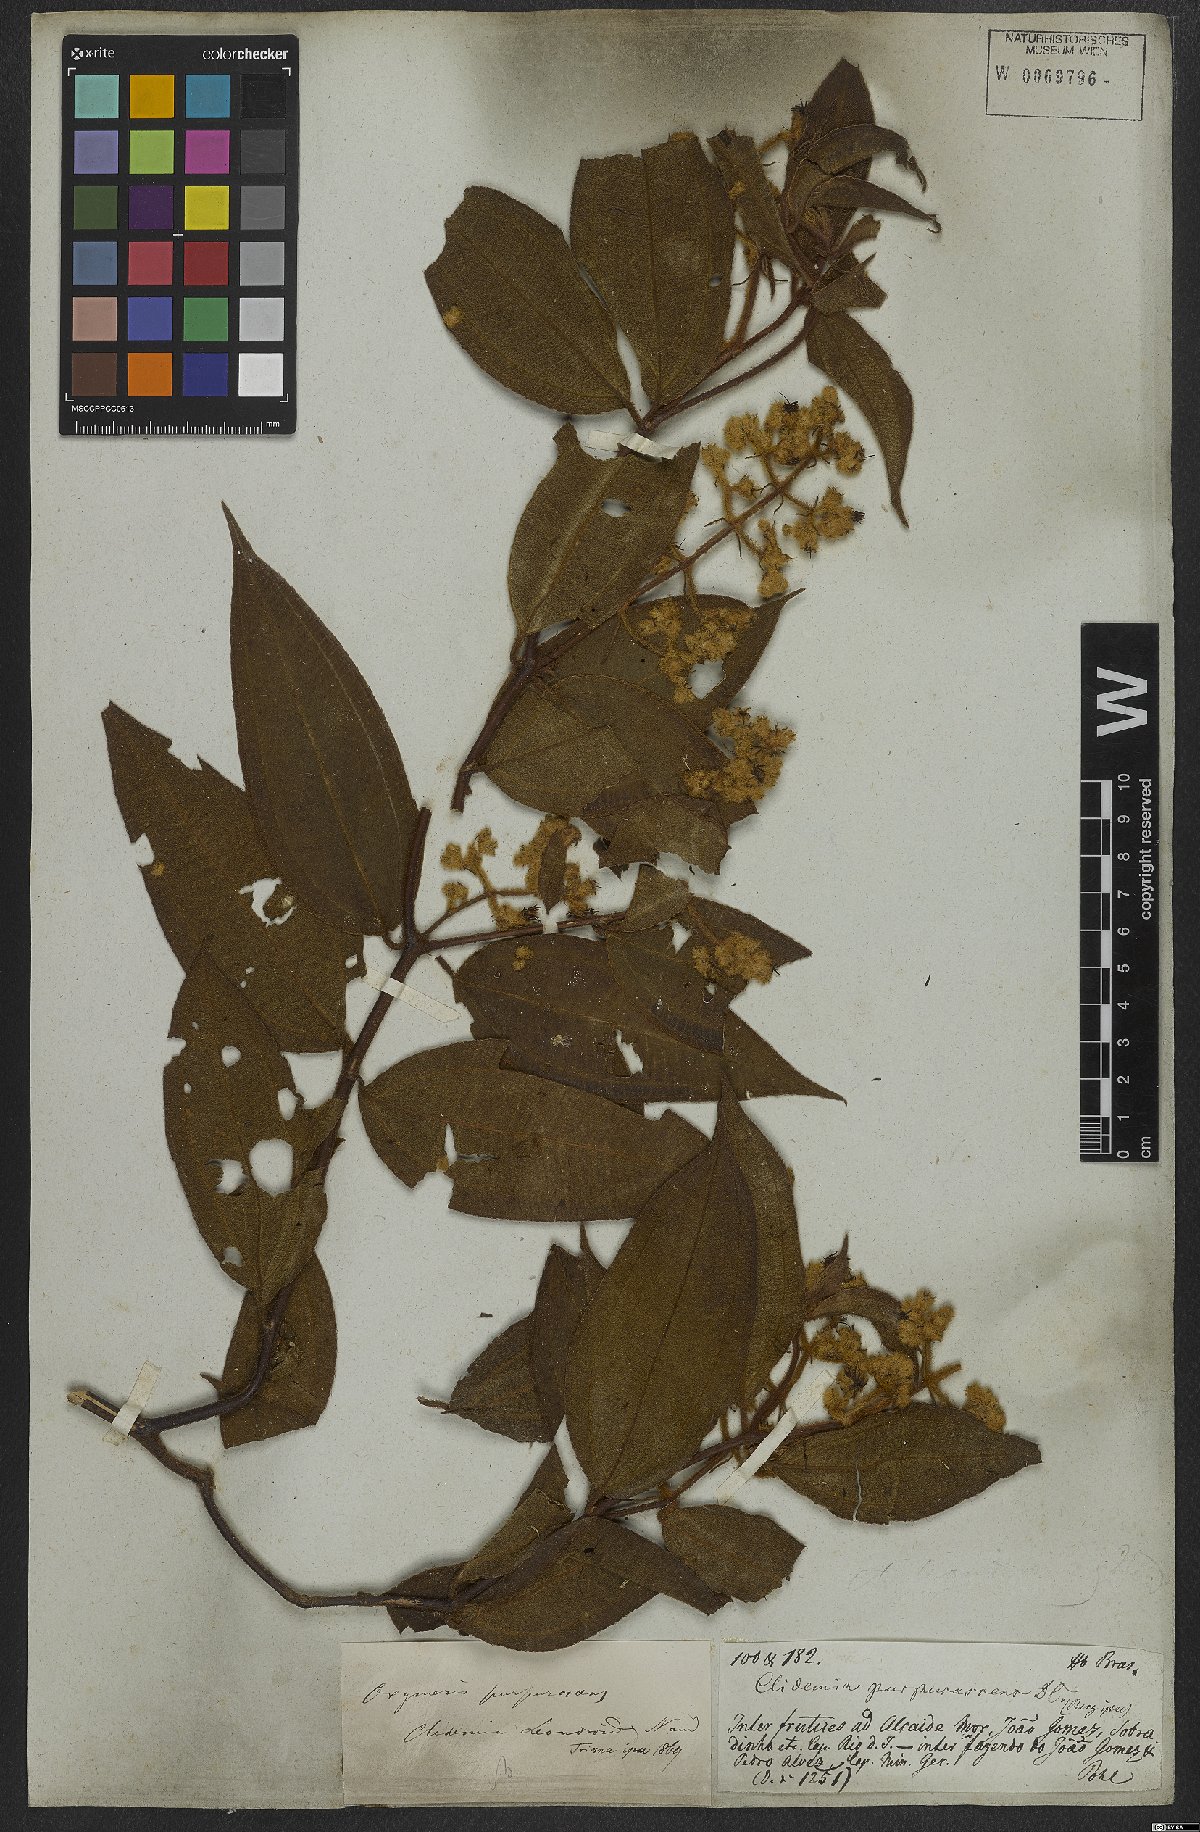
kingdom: Plantae
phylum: Tracheophyta
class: Magnoliopsida
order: Myrtales
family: Melastomataceae
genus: Miconia
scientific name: Miconia microstachya
